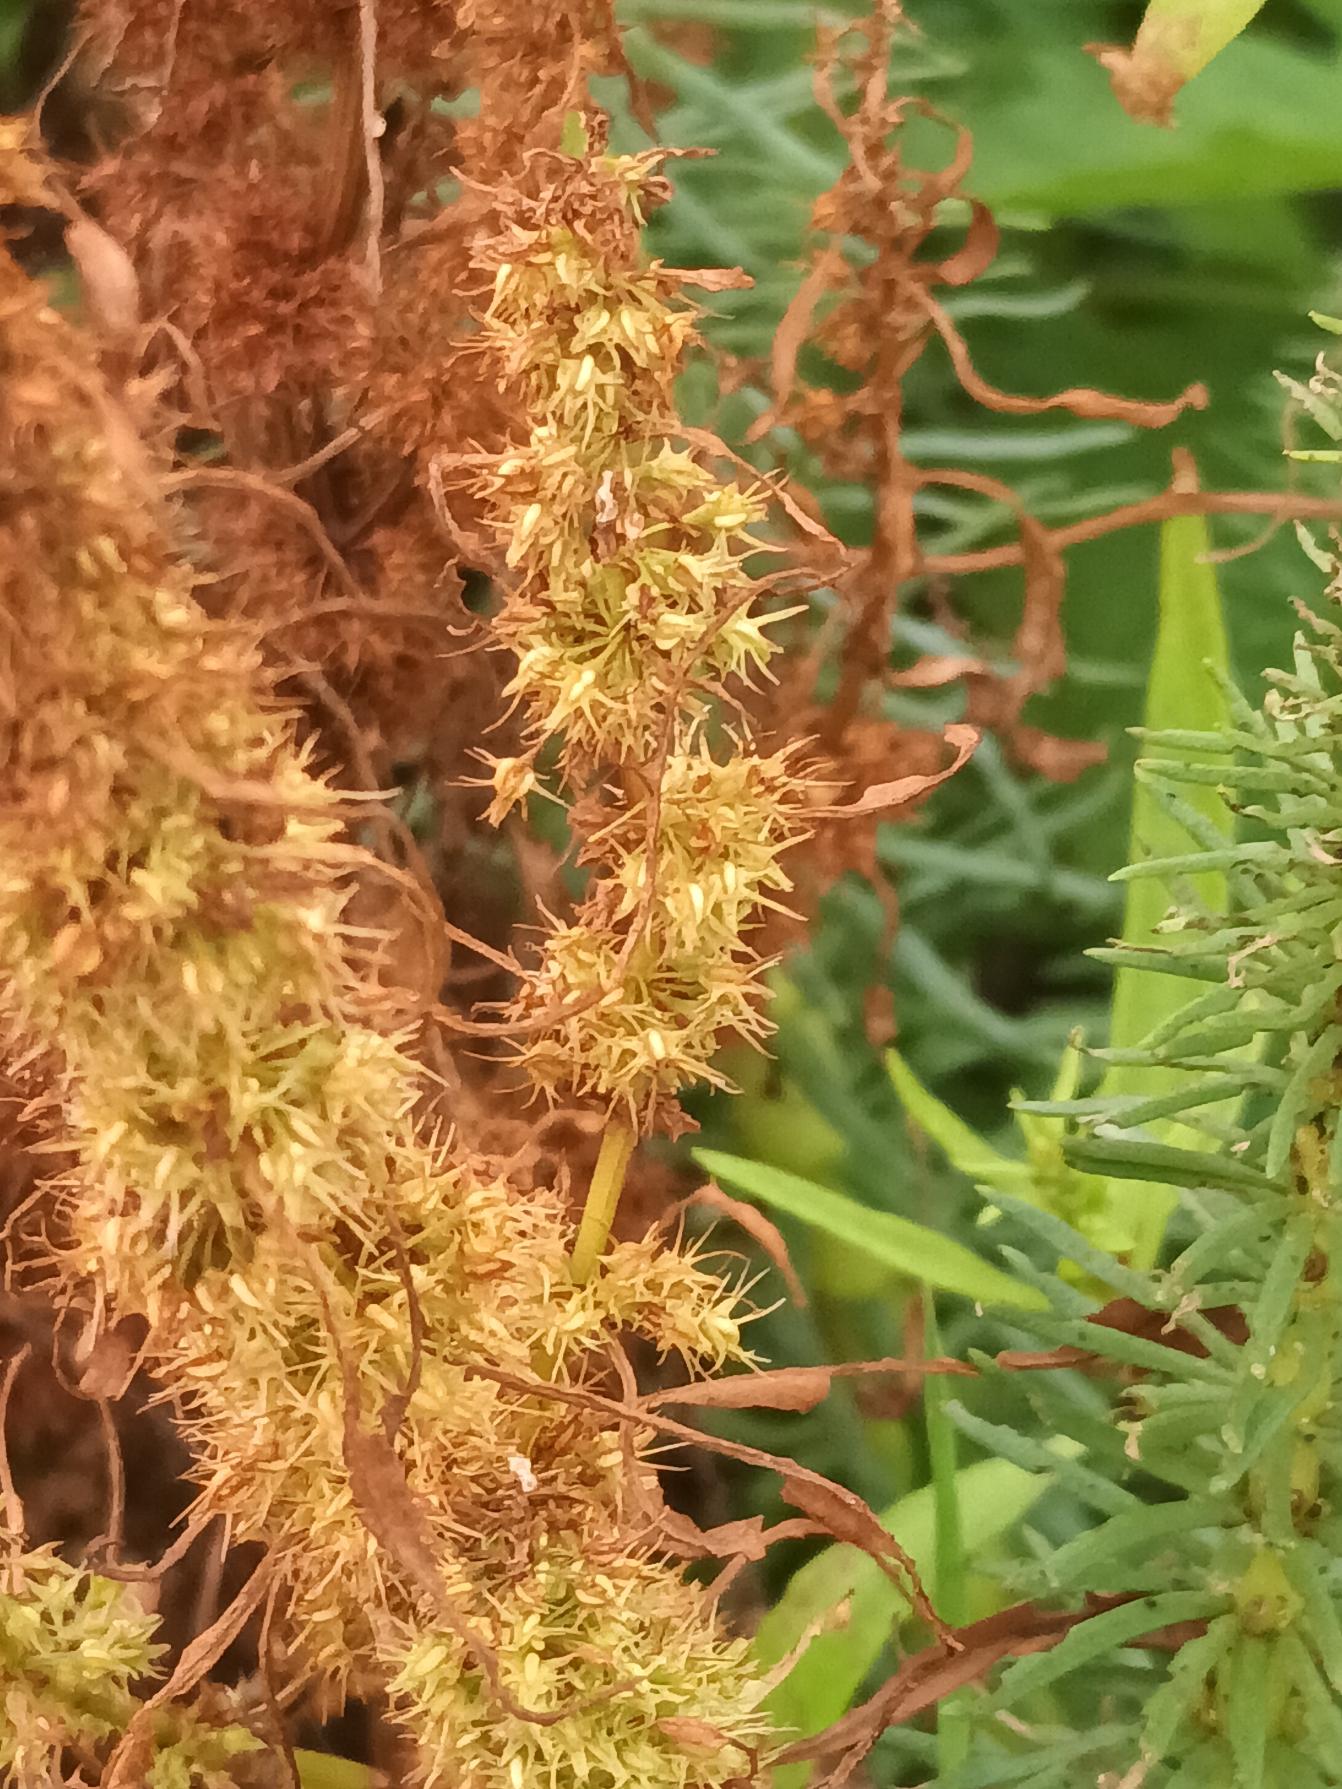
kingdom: Plantae
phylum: Tracheophyta
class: Magnoliopsida
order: Caryophyllales
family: Polygonaceae
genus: Rumex
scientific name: Rumex maritimus
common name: Strand-skræppe
